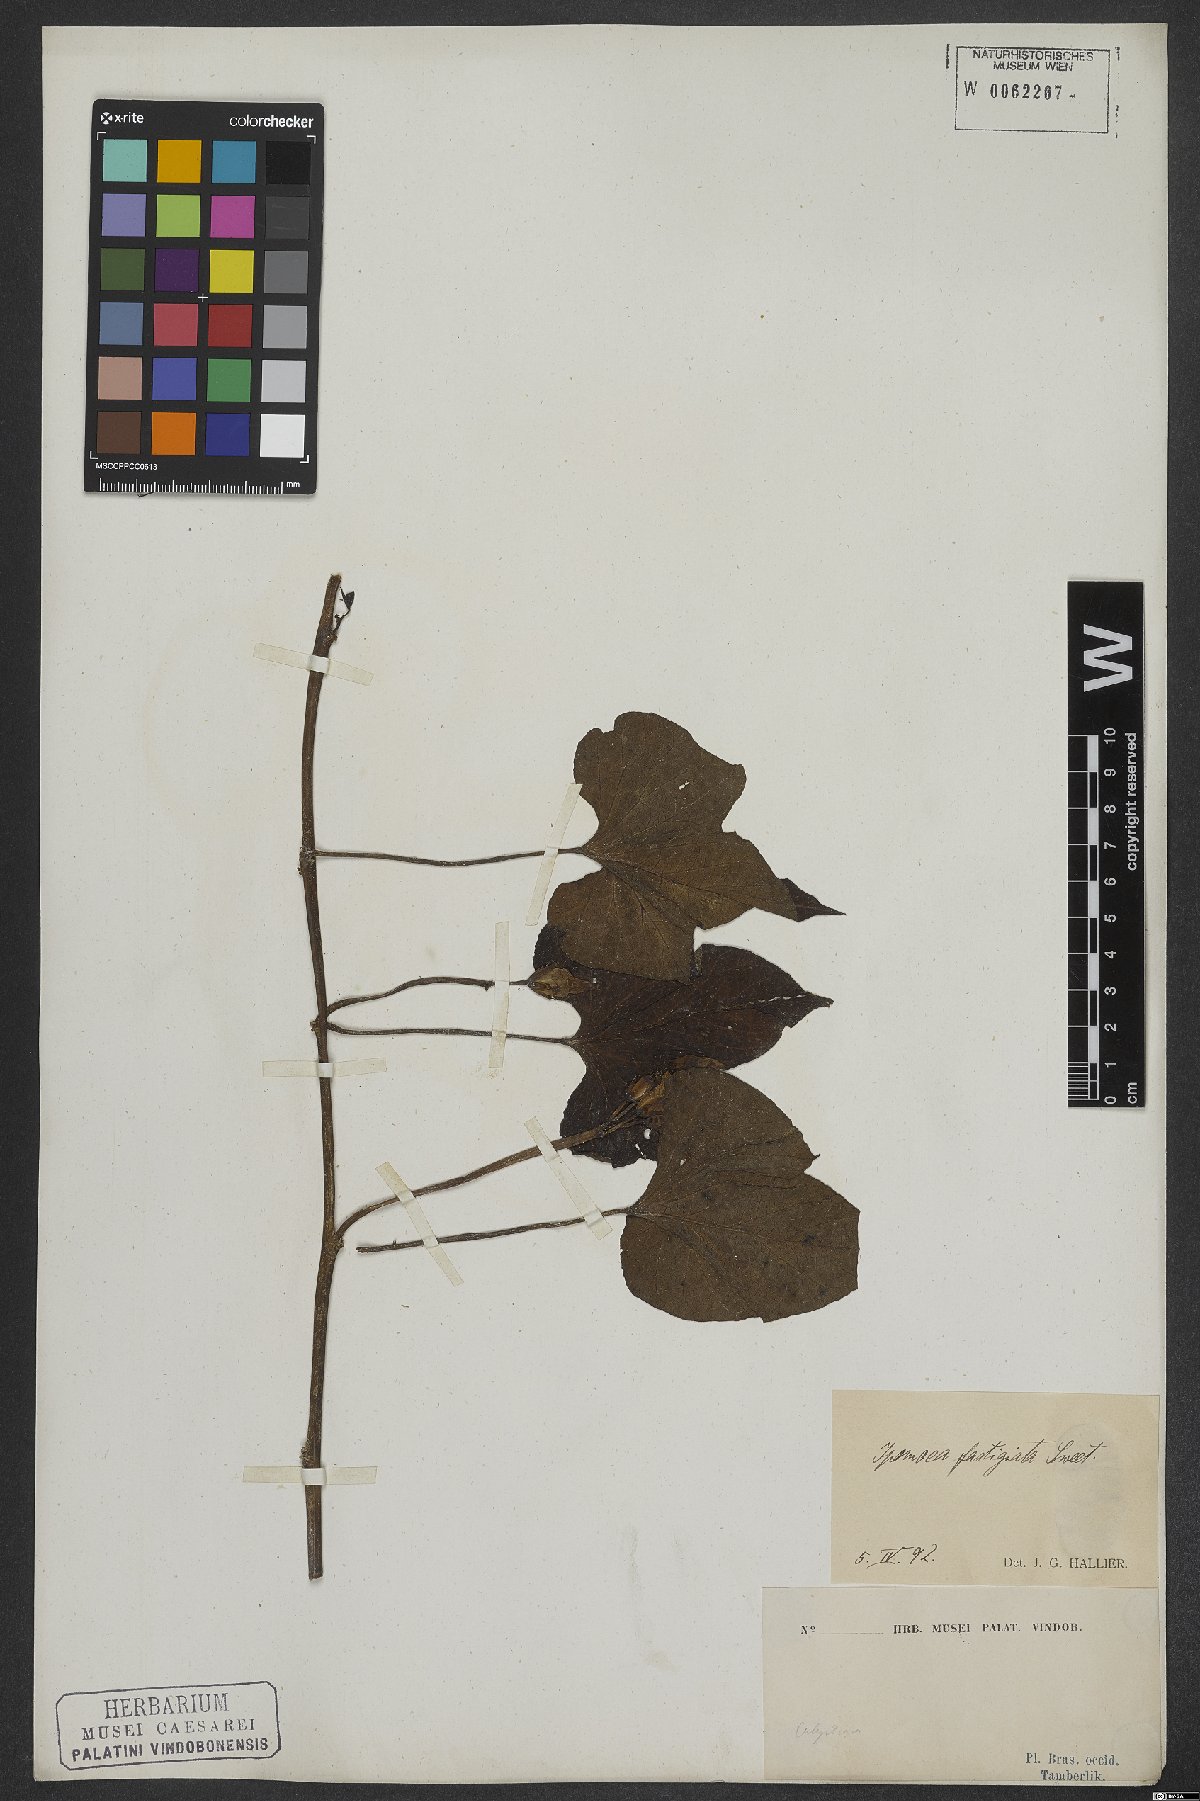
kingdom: Plantae
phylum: Tracheophyta
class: Magnoliopsida
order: Solanales
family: Convolvulaceae
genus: Ipomoea
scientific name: Ipomoea batatas
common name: Sweet-potato
